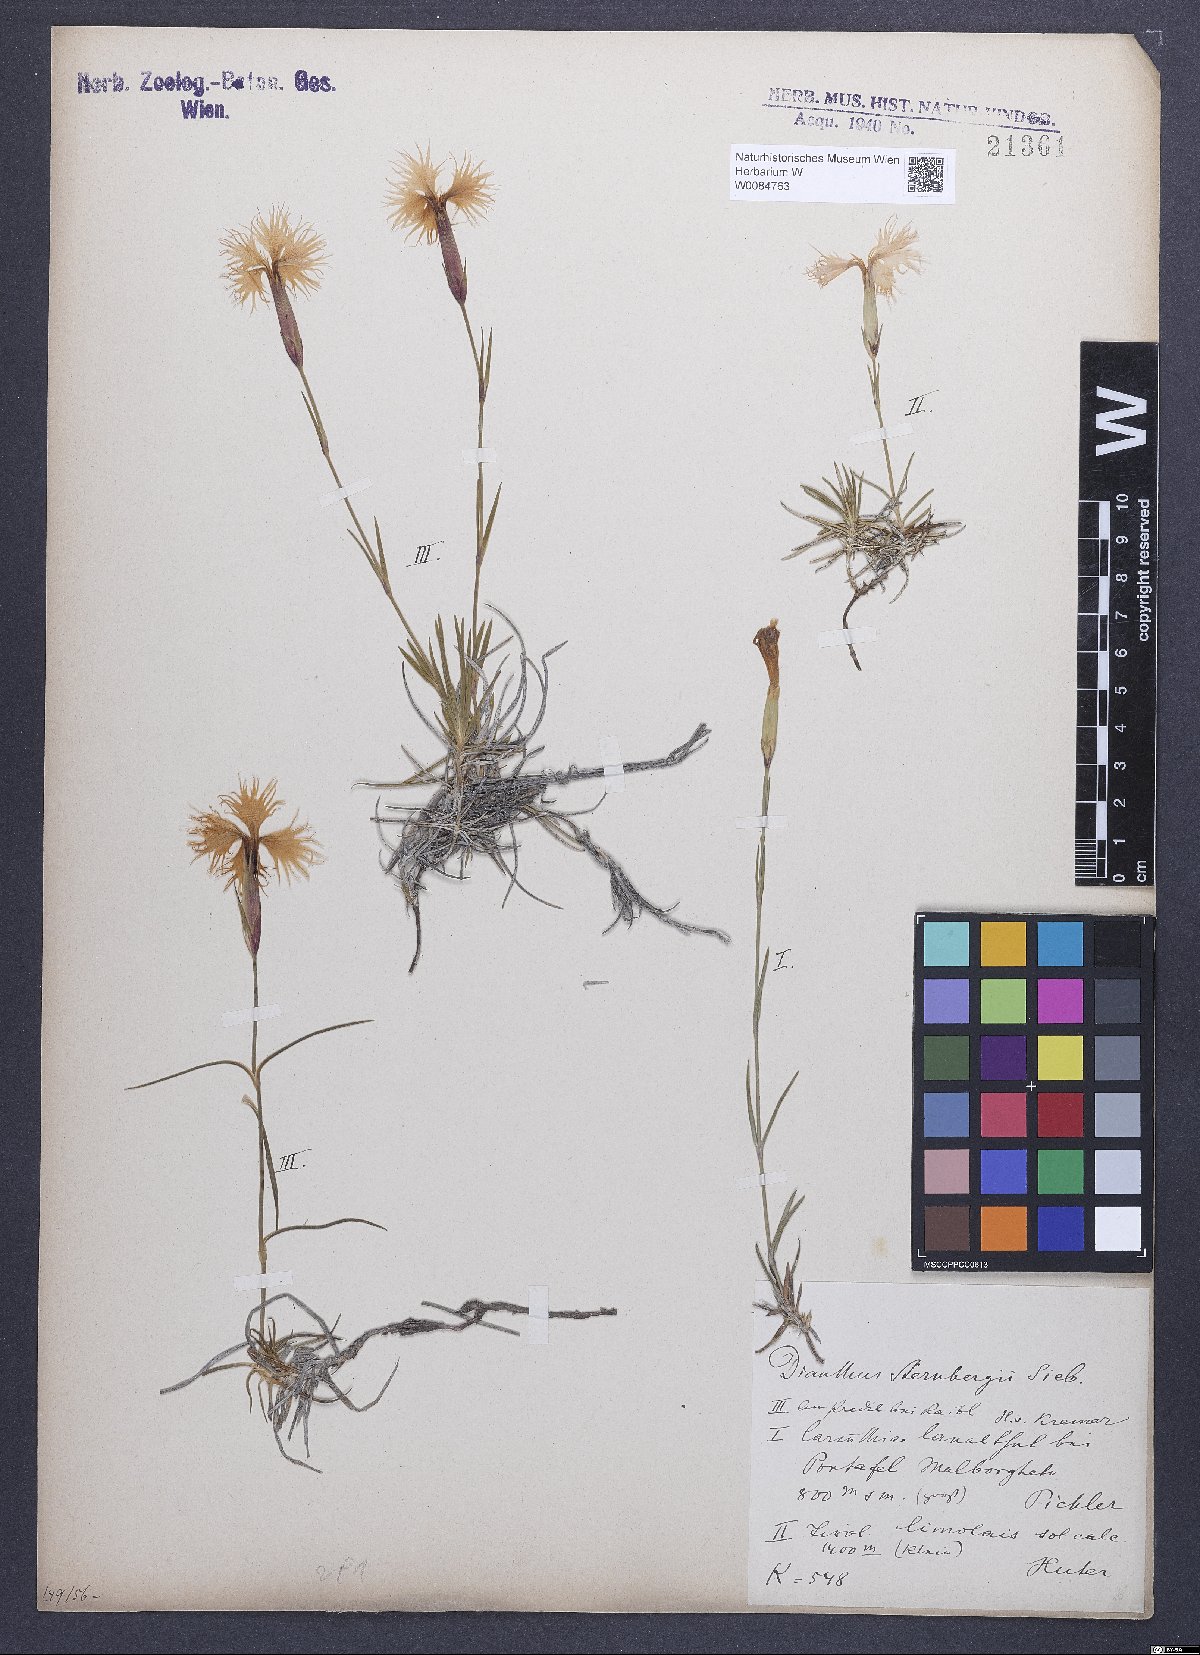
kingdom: Plantae
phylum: Tracheophyta
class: Magnoliopsida
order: Caryophyllales
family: Caryophyllaceae
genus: Dianthus
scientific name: Dianthus monspessulanus
